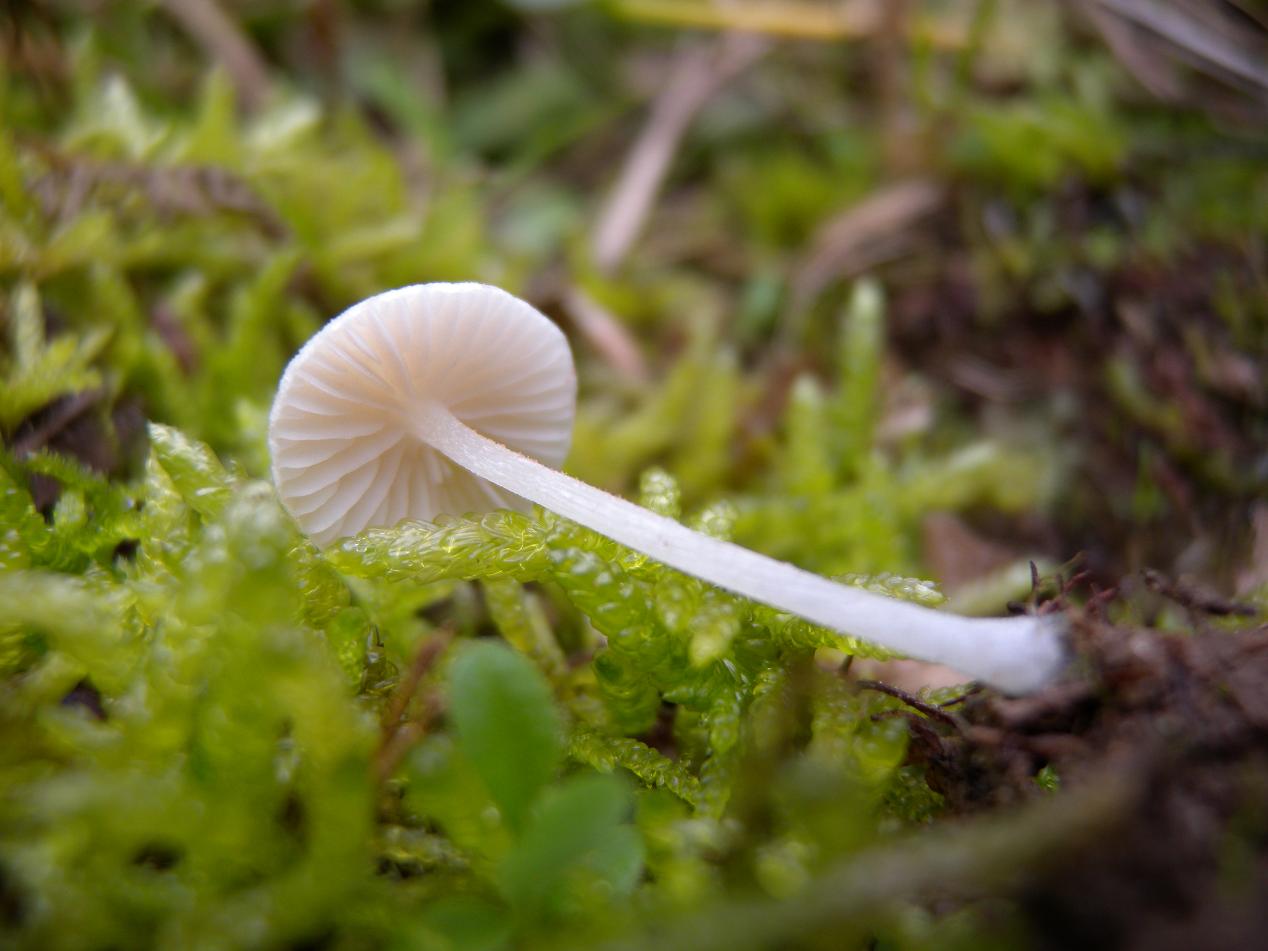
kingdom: Fungi
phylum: Basidiomycota
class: Agaricomycetes
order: Agaricales
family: Entolomataceae
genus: Entoloma
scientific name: Entoloma sericellum
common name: silkehvid rødblad
